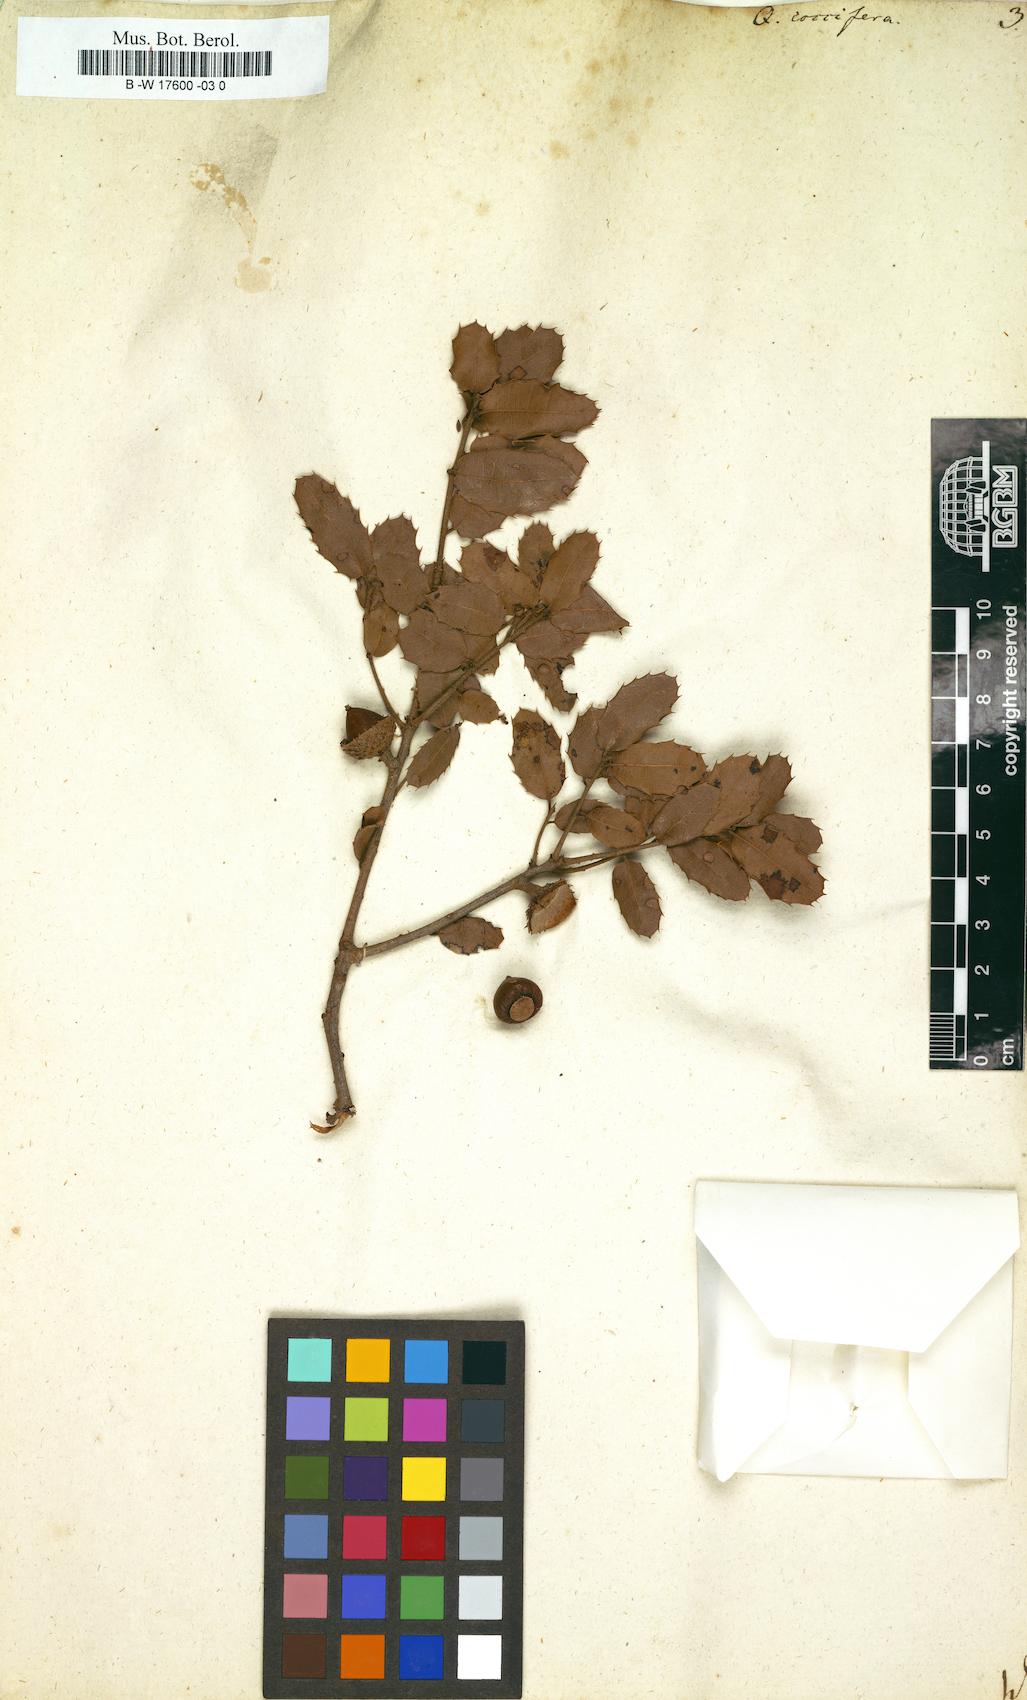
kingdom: Plantae
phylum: Tracheophyta
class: Magnoliopsida
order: Fagales
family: Fagaceae
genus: Quercus
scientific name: Quercus coccifera
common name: Kermes oak
